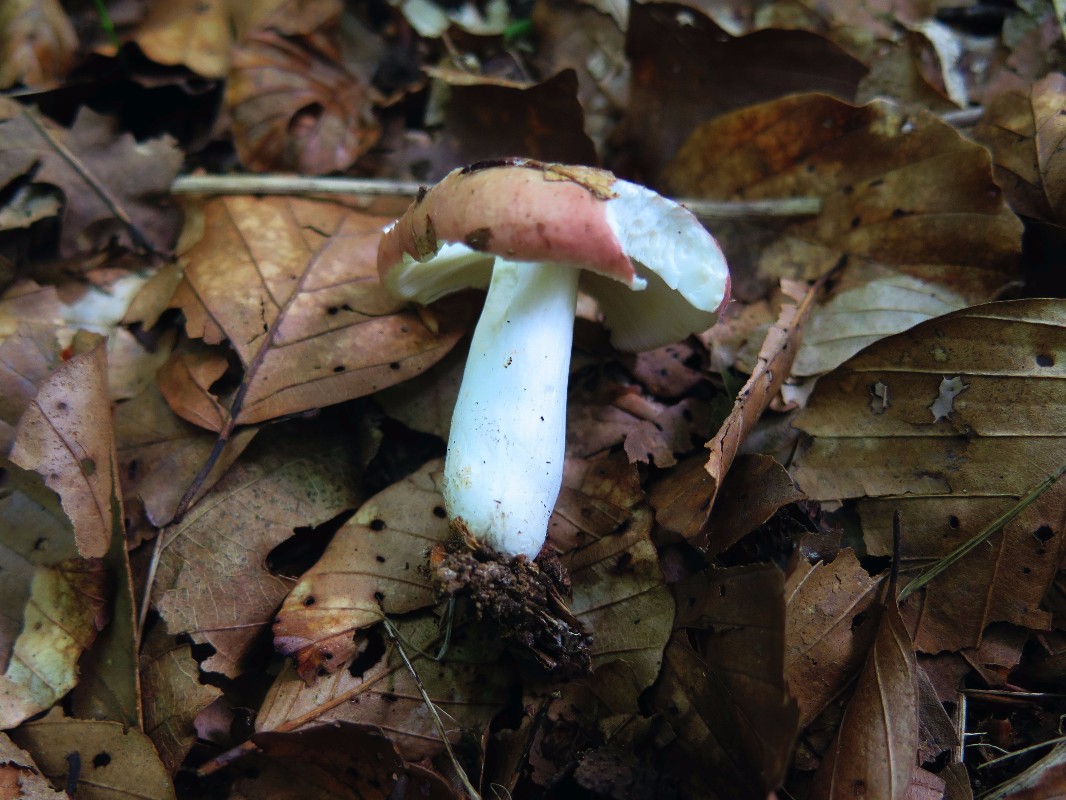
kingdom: Fungi
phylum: Basidiomycota
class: Agaricomycetes
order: Russulales
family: Russulaceae
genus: Russula
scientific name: Russula rosea
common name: fastkødet skørhat
